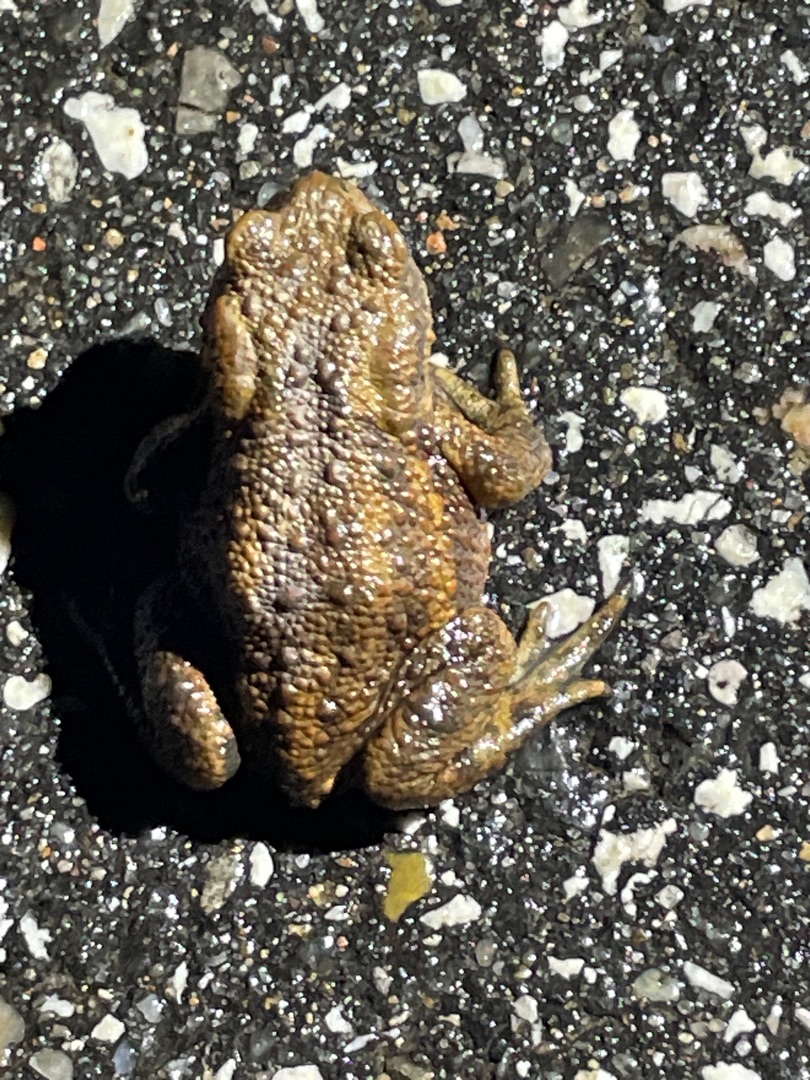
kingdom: Animalia
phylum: Chordata
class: Amphibia
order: Anura
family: Bufonidae
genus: Bufo
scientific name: Bufo bufo
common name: Skrubtudse
